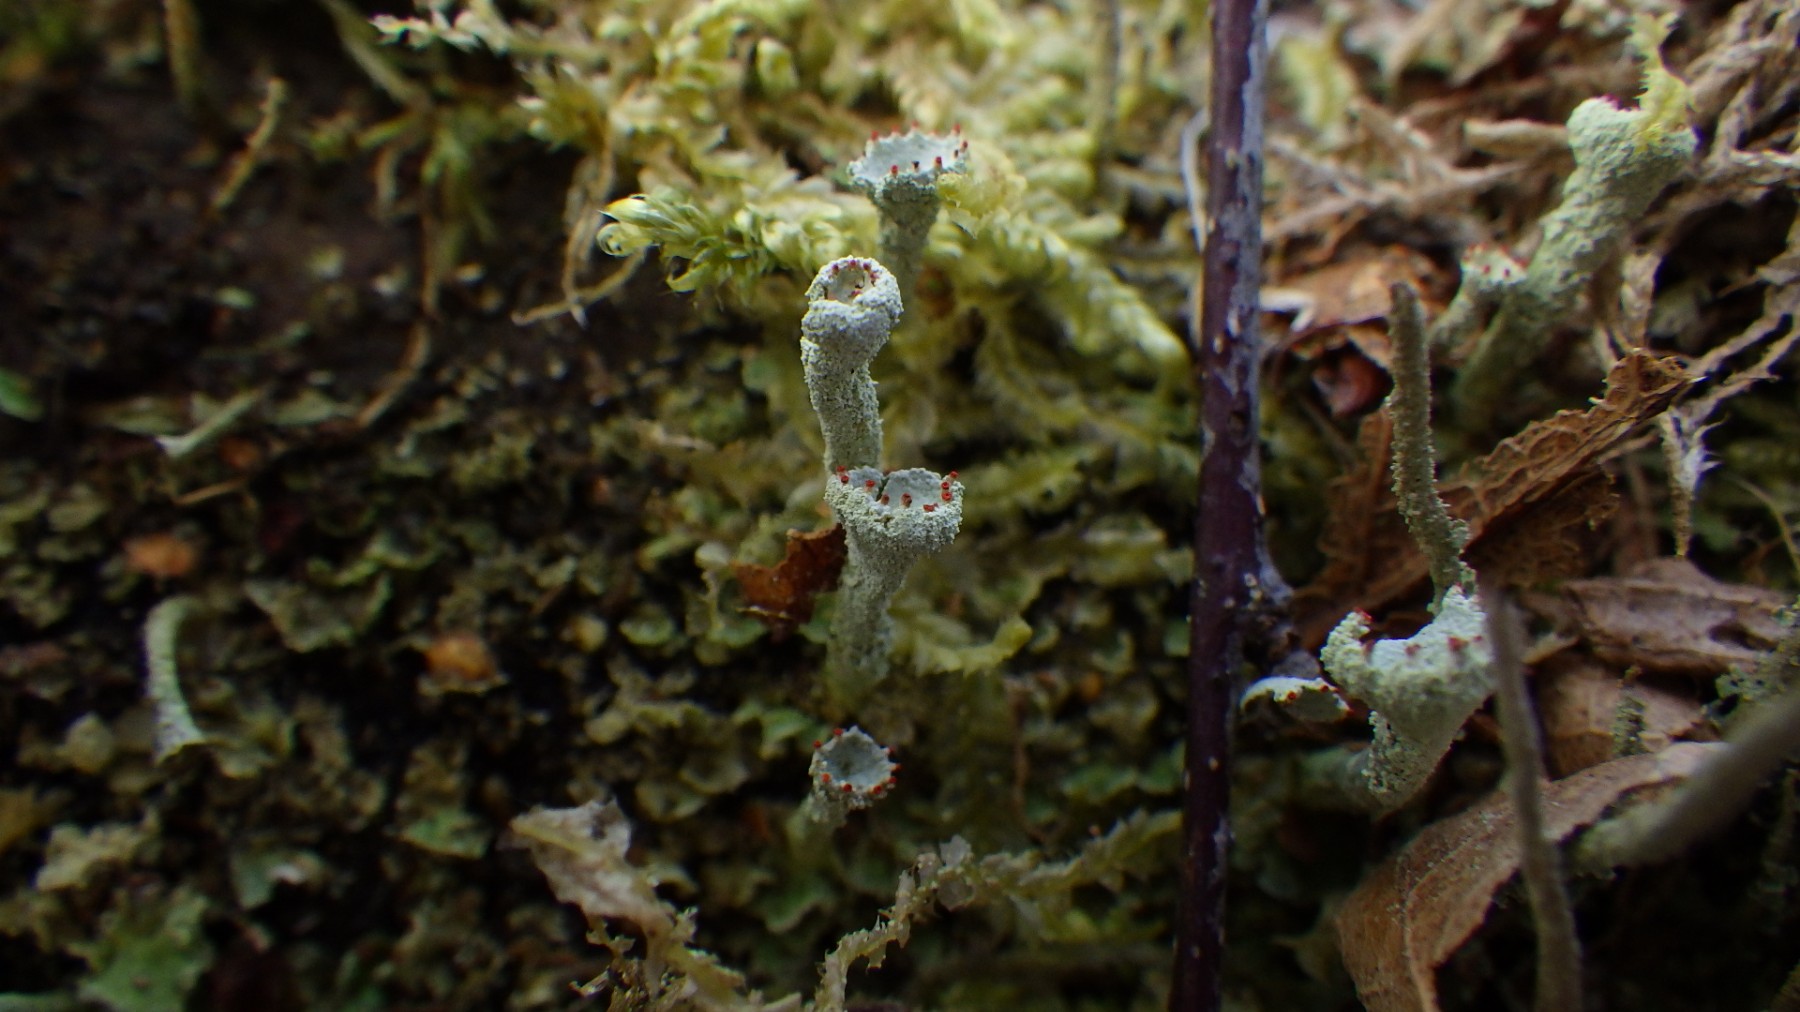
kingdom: Fungi
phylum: Ascomycota
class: Lecanoromycetes
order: Lecanorales
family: Cladoniaceae
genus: Cladonia
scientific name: Cladonia digitata
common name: finger-bægerlav
